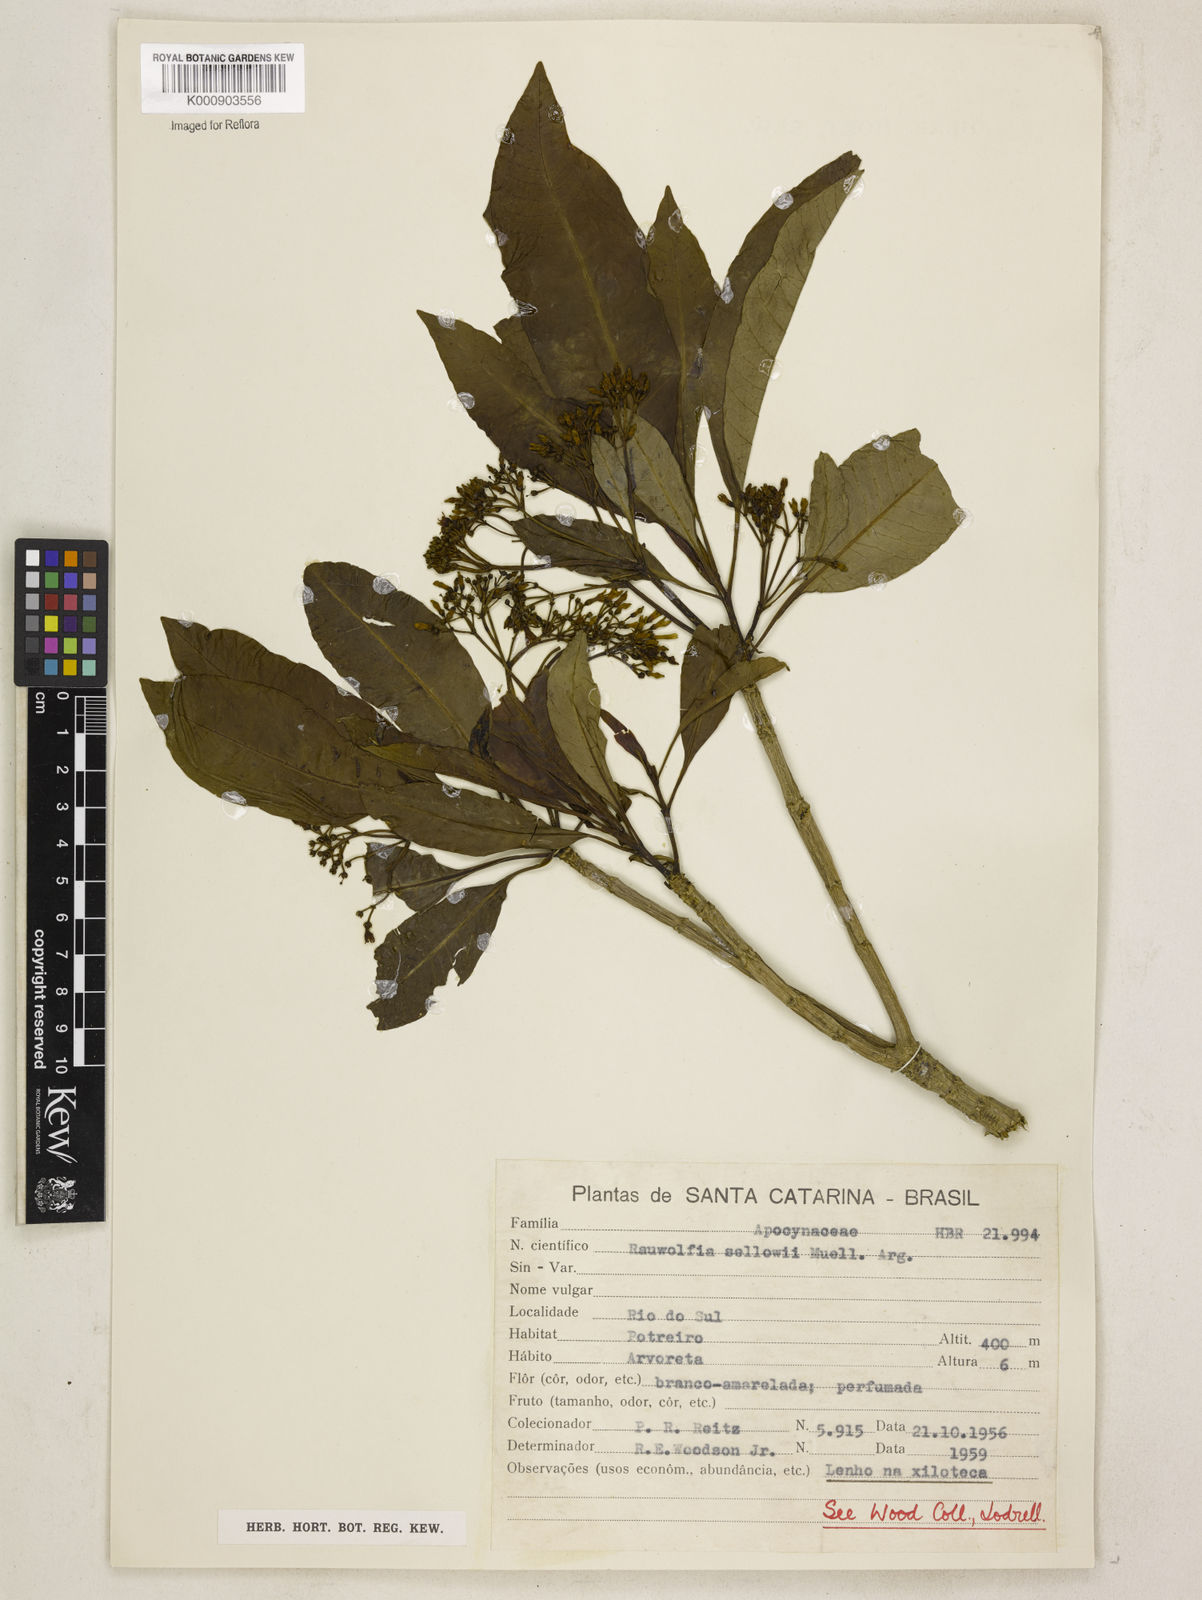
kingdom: Plantae
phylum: Tracheophyta
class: Magnoliopsida
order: Gentianales
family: Apocynaceae
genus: Rauvolfia
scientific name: Rauvolfia
